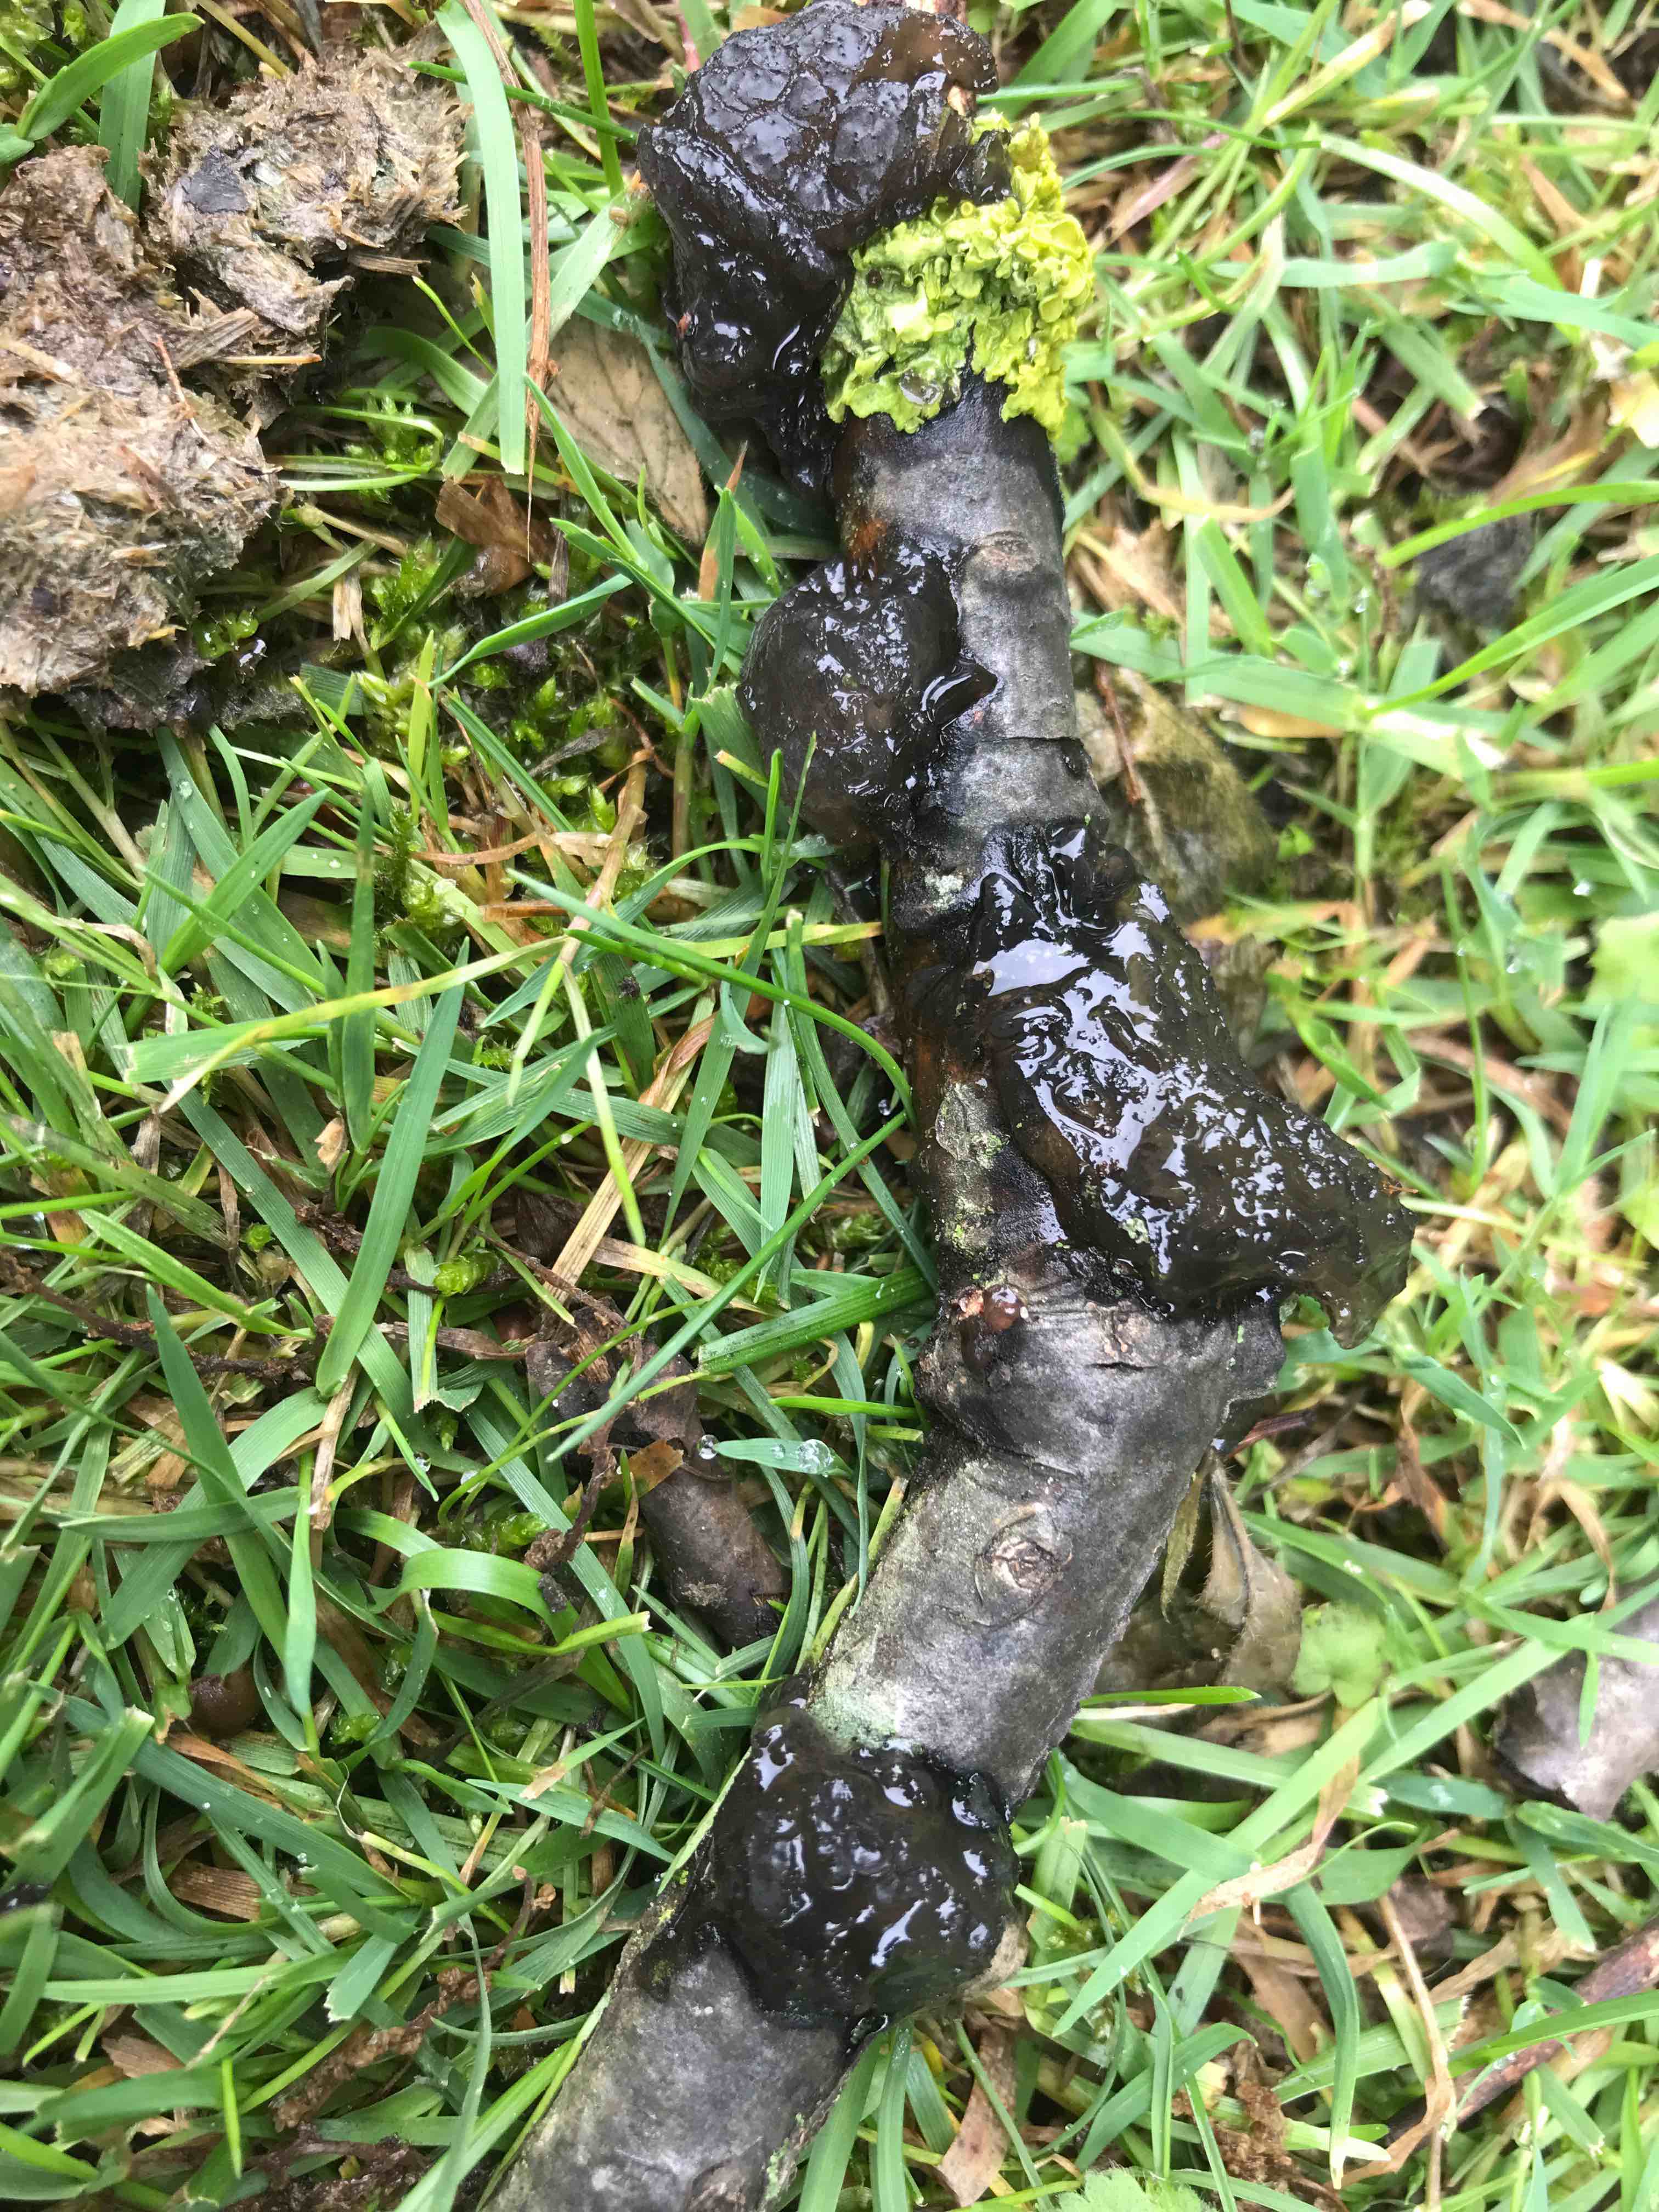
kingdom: Fungi
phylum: Basidiomycota
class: Agaricomycetes
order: Auriculariales
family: Auriculariaceae
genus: Exidia
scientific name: Exidia glandulosa
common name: ege-bævretop
